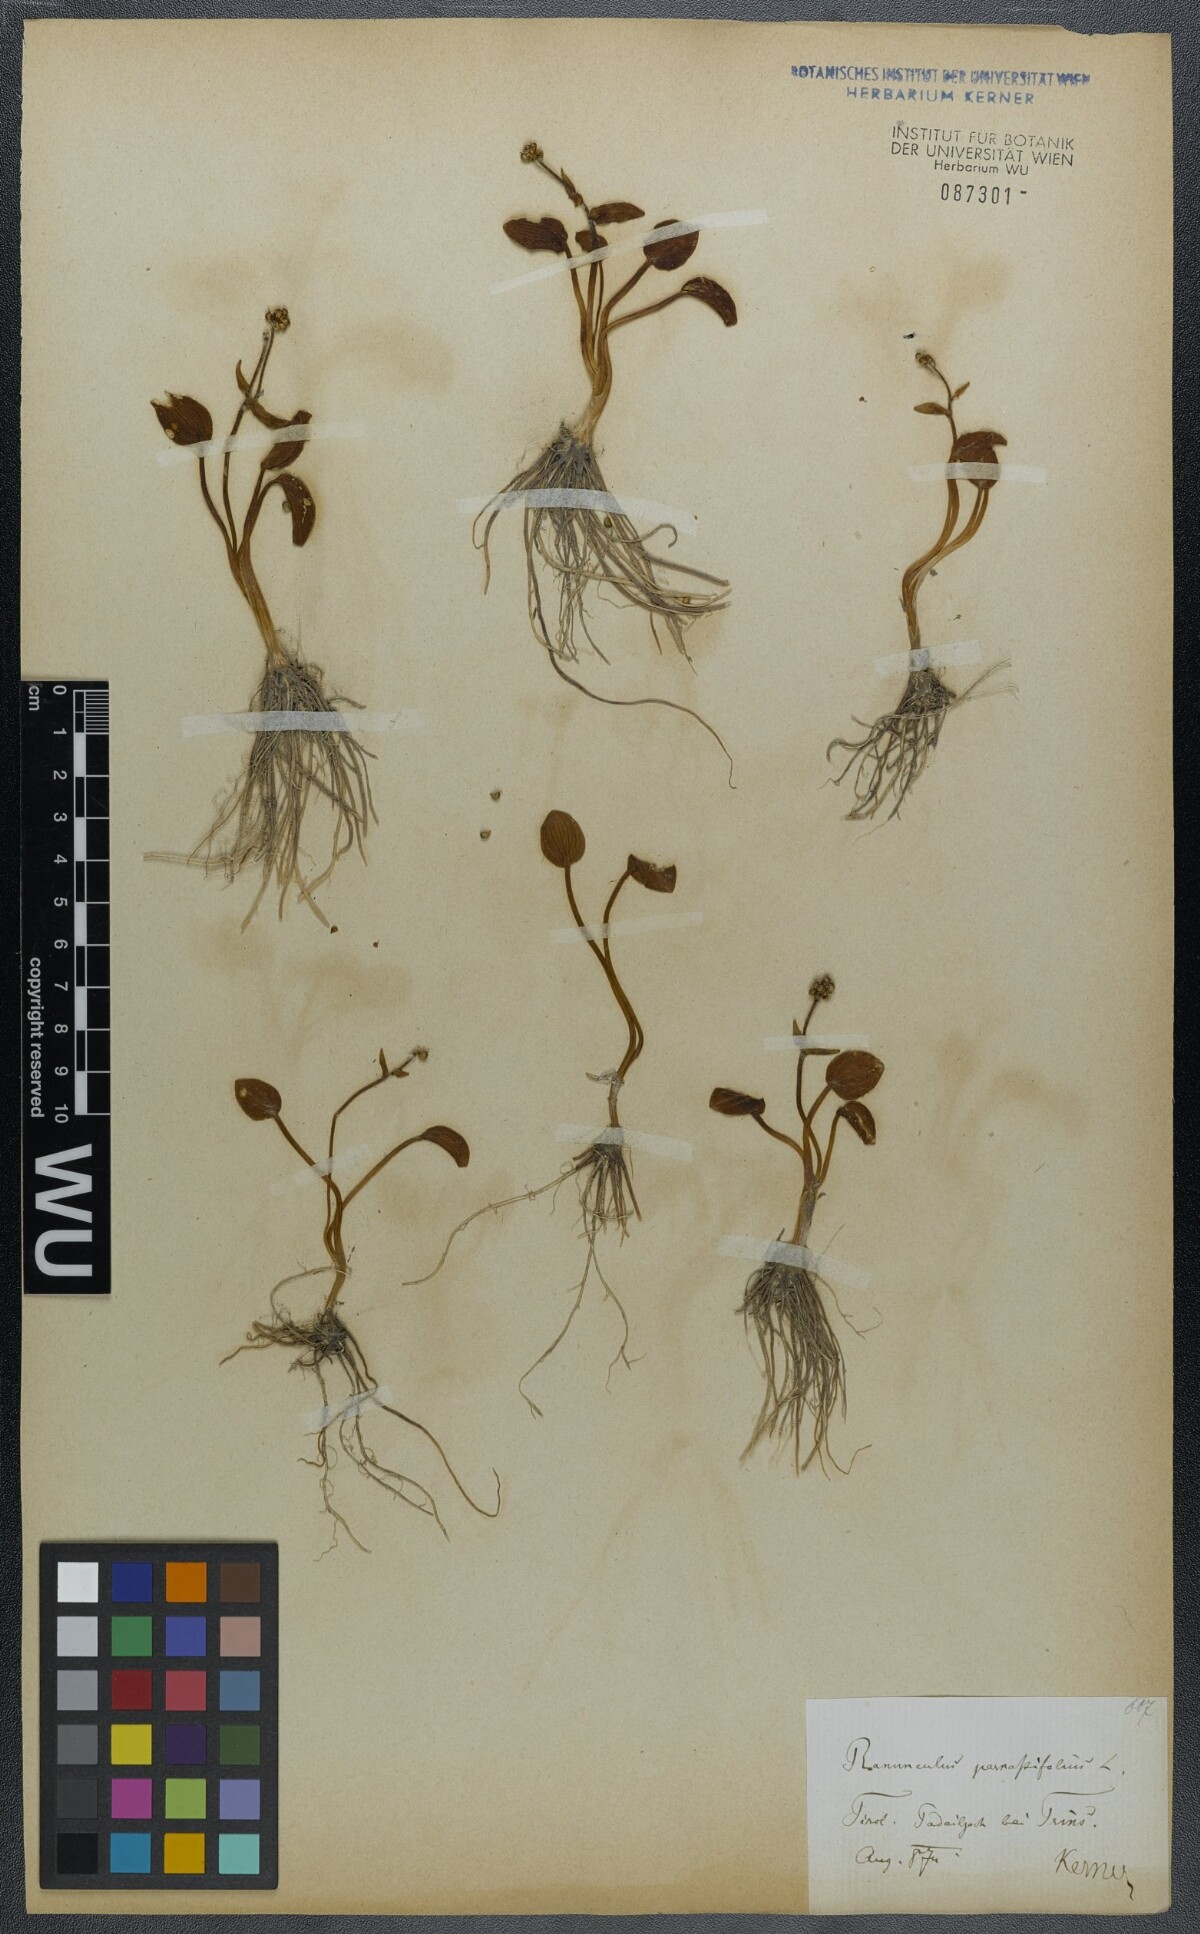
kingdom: Plantae
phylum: Tracheophyta
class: Magnoliopsida
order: Ranunculales
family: Ranunculaceae
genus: Ranunculus
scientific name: Ranunculus parnassiifolius
